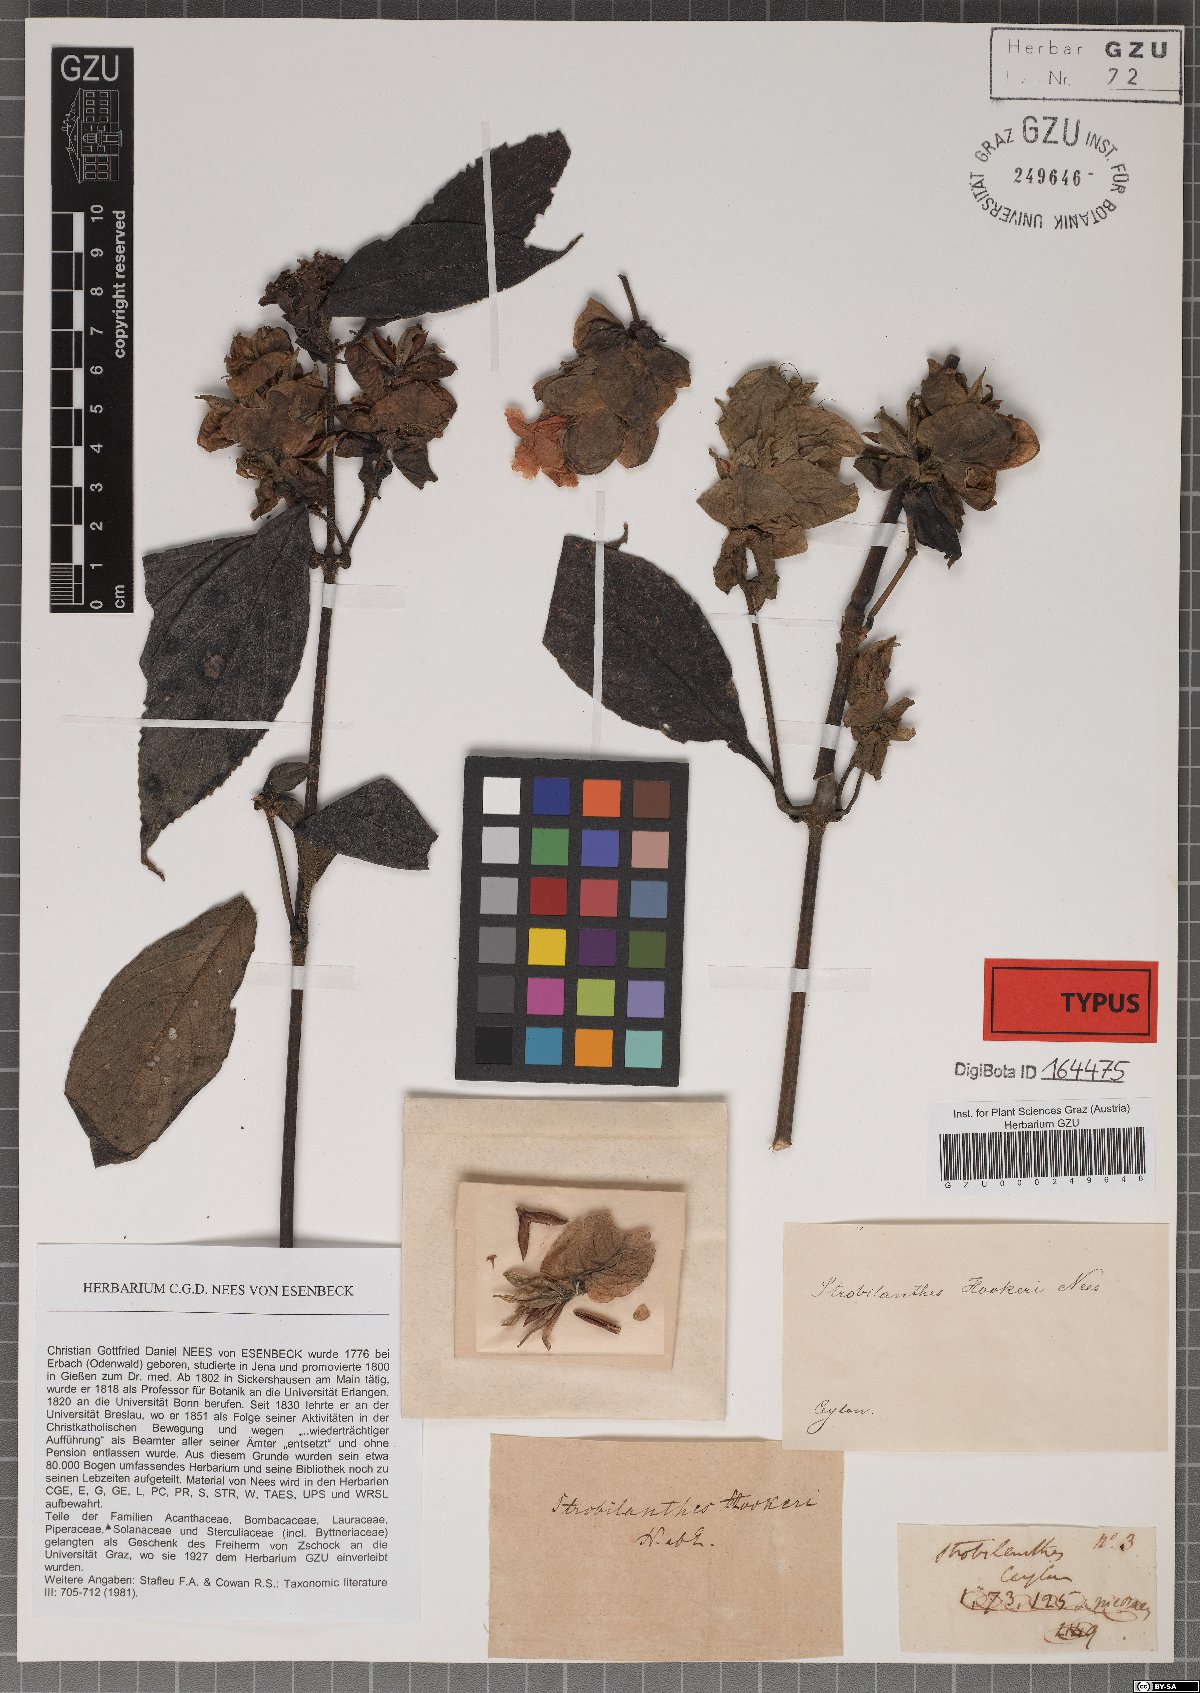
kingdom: Plantae
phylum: Tracheophyta
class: Magnoliopsida
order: Lamiales
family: Acanthaceae
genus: Strobilanthes
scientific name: Strobilanthes hookeri
